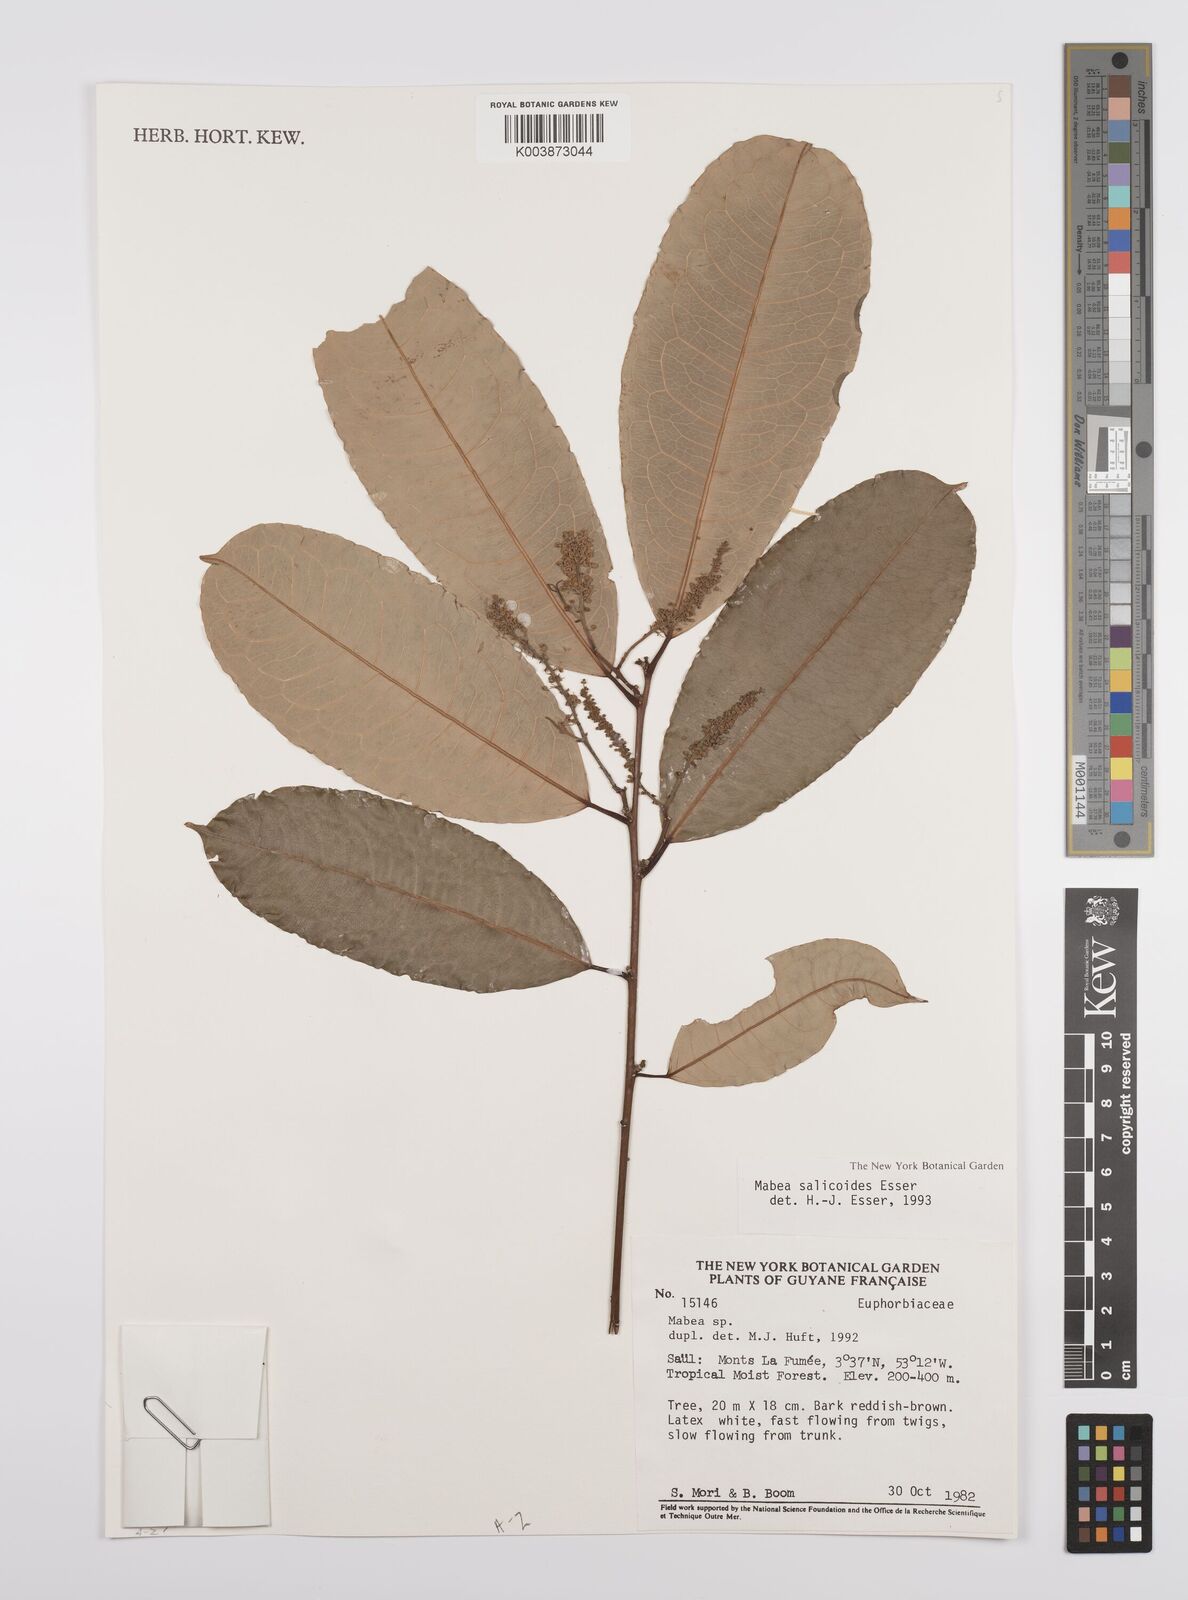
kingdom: Plantae
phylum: Tracheophyta
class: Magnoliopsida
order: Malpighiales
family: Euphorbiaceae
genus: Mabea
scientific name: Mabea salicoides
